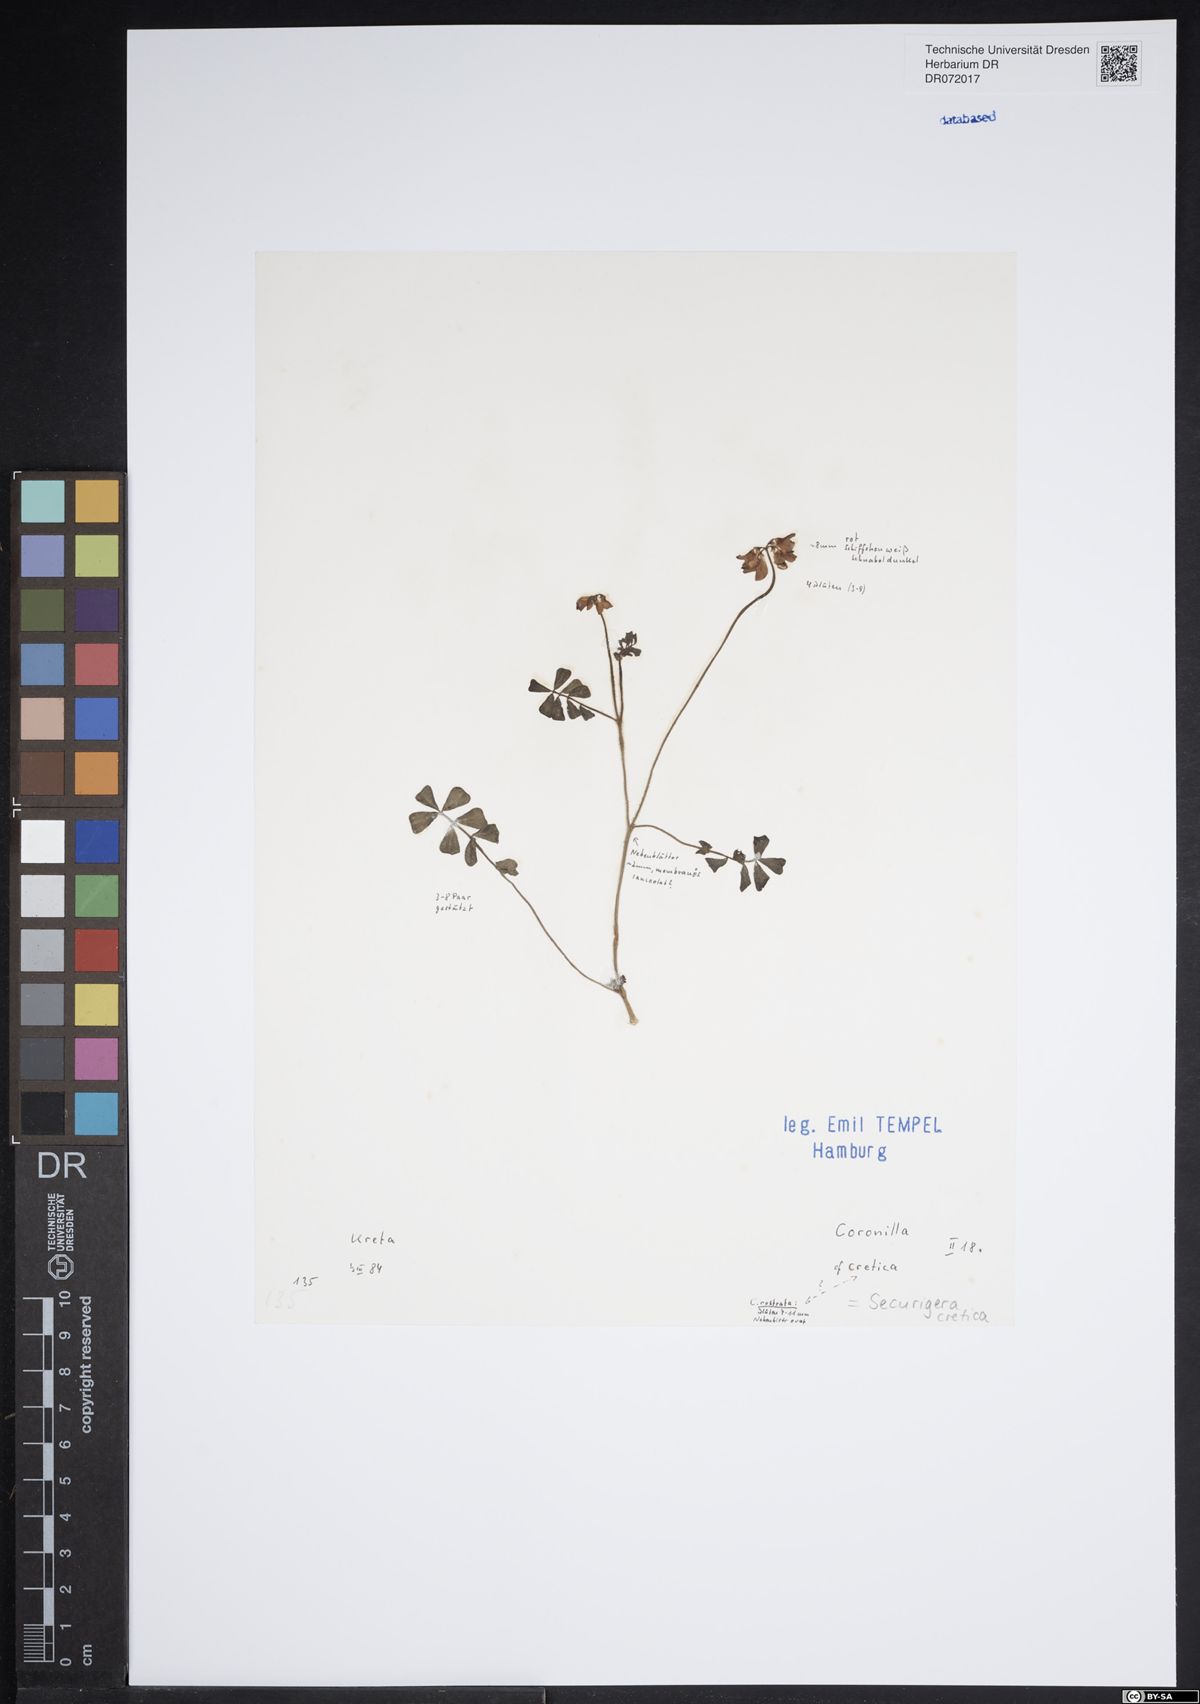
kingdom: Plantae
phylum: Tracheophyta
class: Magnoliopsida
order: Fabales
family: Fabaceae
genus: Coronilla
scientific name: Coronilla cretica
